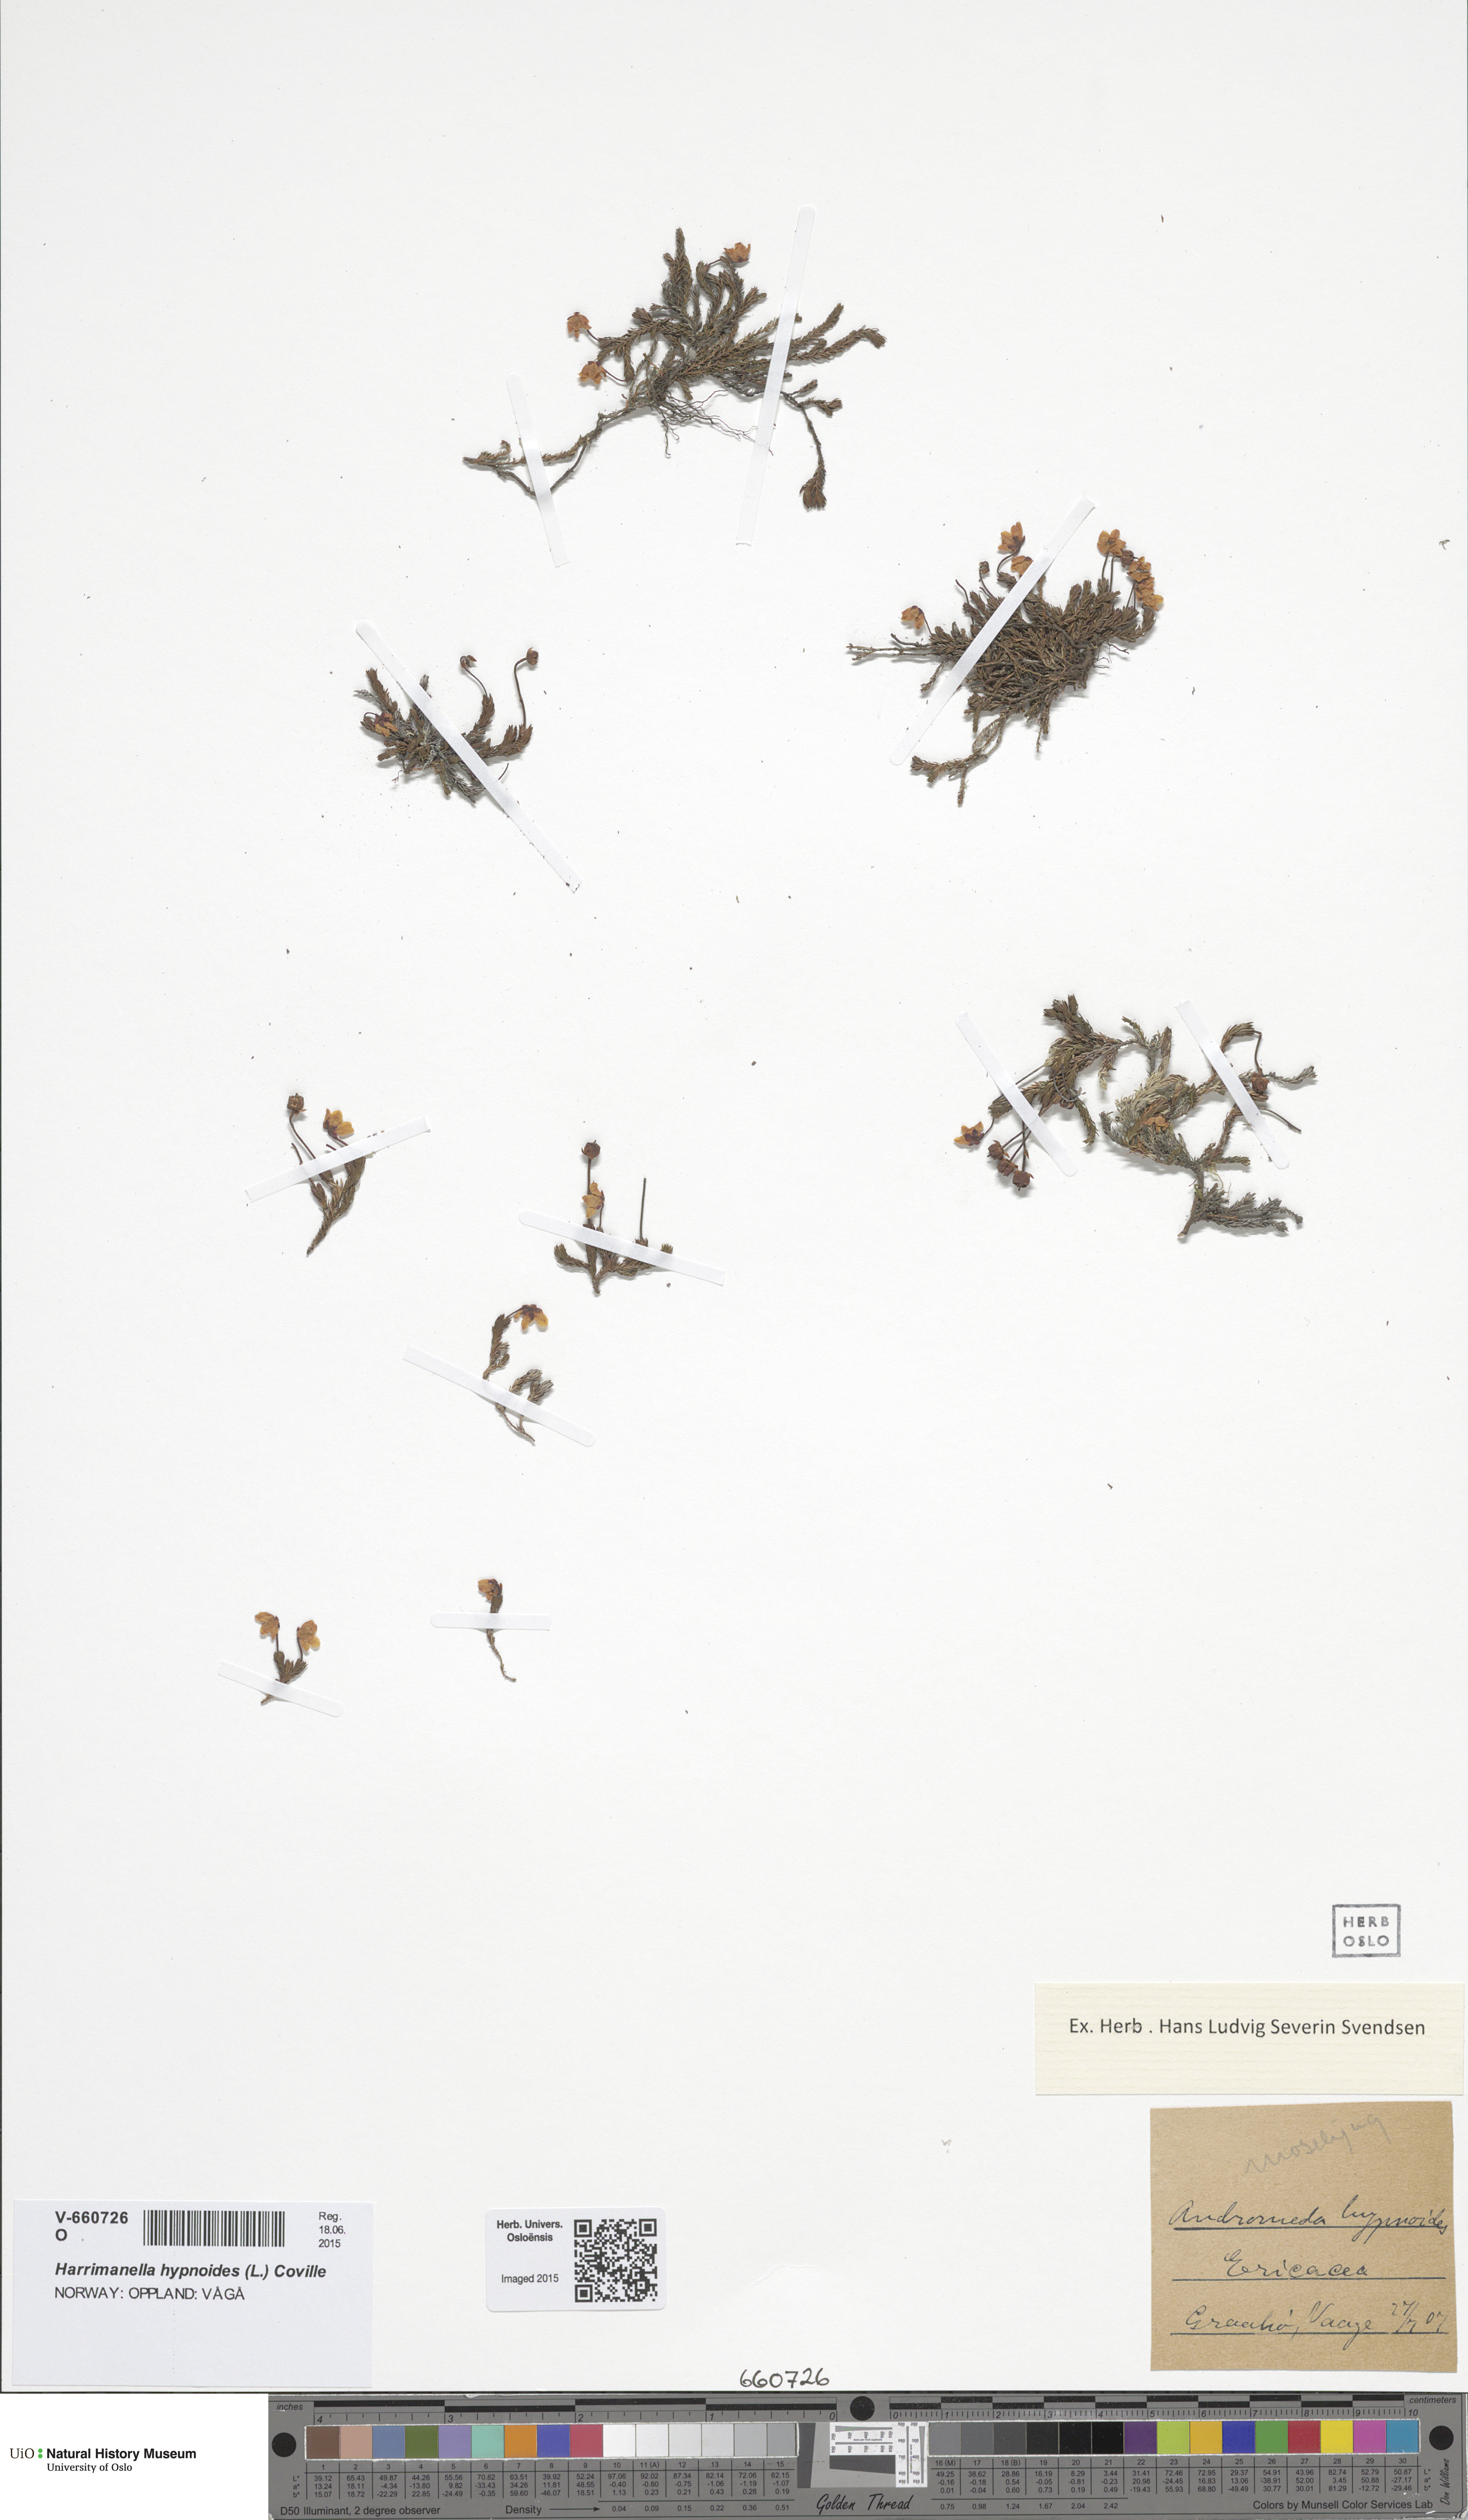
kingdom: Plantae
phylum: Tracheophyta
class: Magnoliopsida
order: Ericales
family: Ericaceae
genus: Harrimanella
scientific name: Harrimanella hypnoides
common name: Moss bell heather
